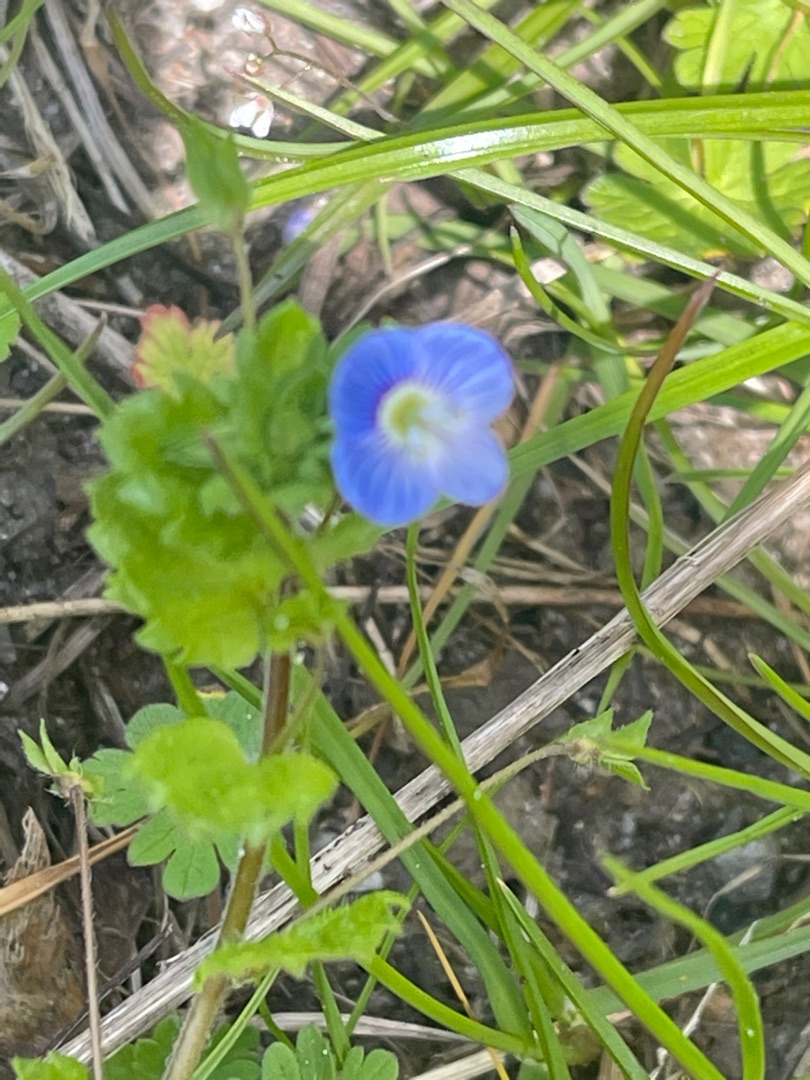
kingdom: Plantae
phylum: Tracheophyta
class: Magnoliopsida
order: Lamiales
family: Plantaginaceae
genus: Veronica
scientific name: Veronica persica
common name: Storkronet ærenpris
